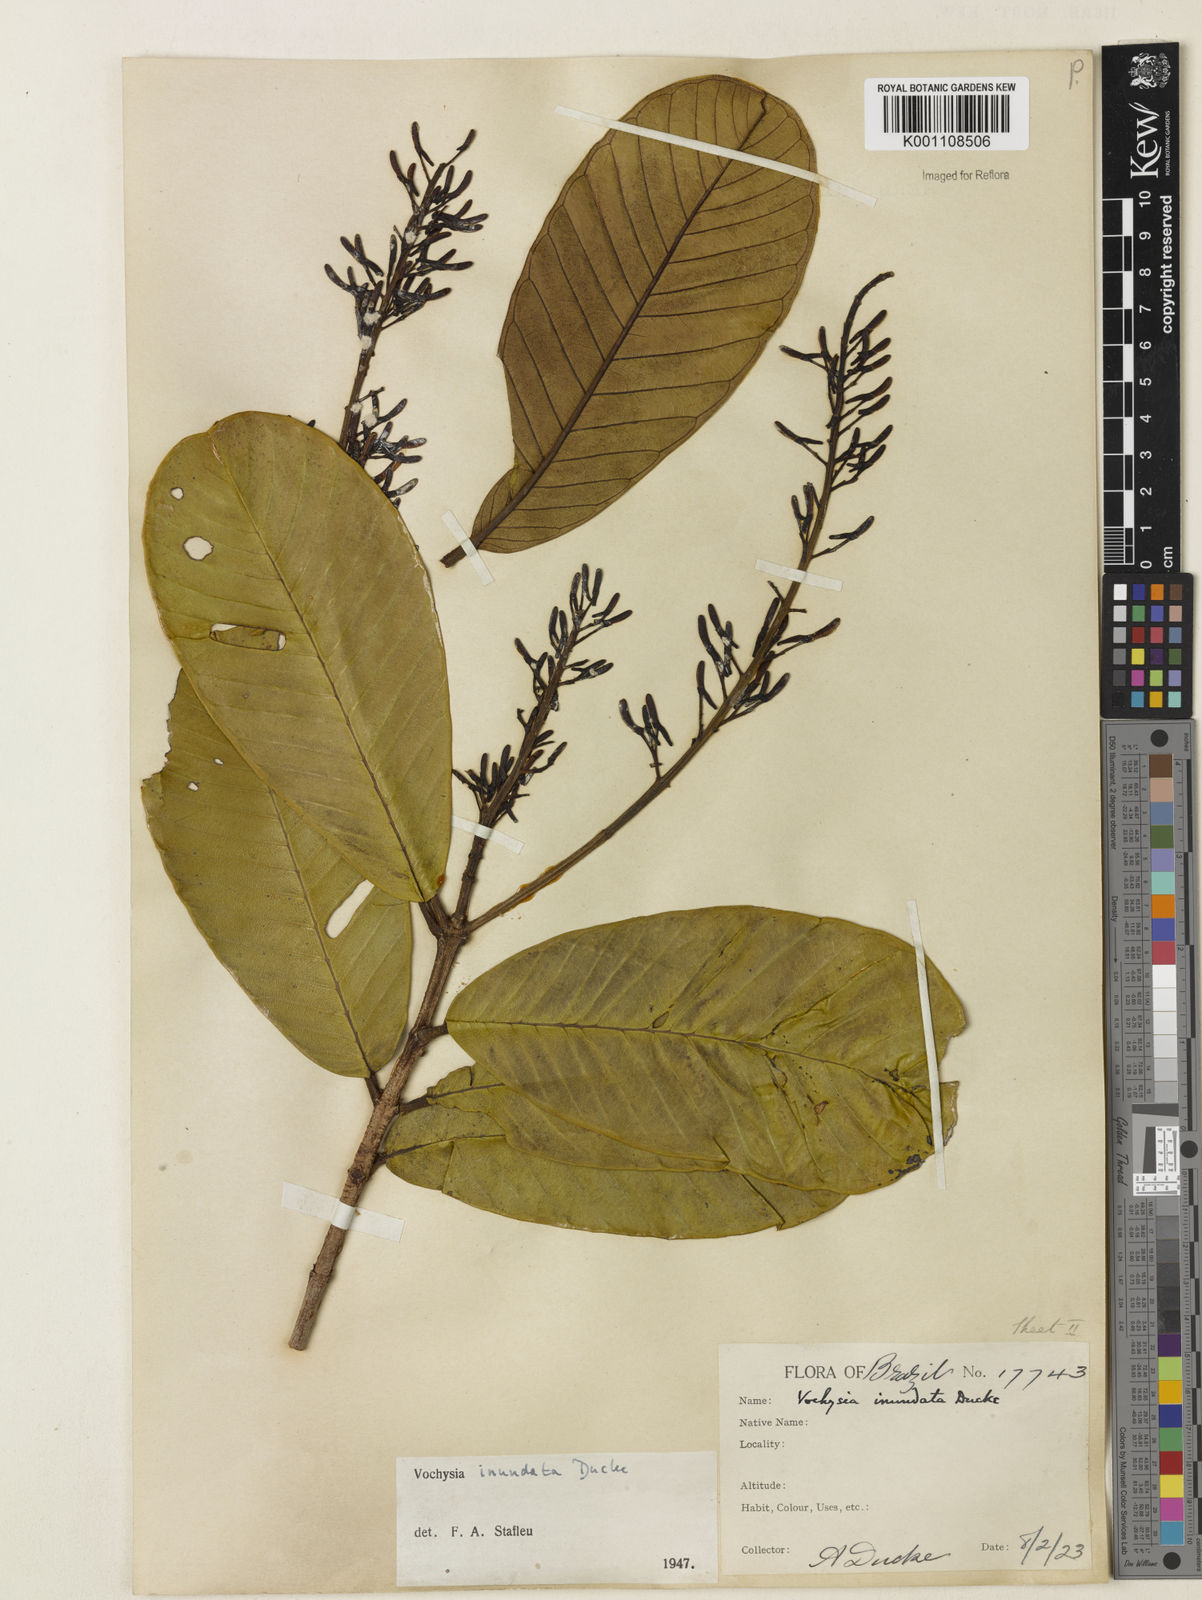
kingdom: Plantae
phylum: Tracheophyta
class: Magnoliopsida
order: Myrtales
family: Vochysiaceae
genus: Vochysia
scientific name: Vochysia inundata
